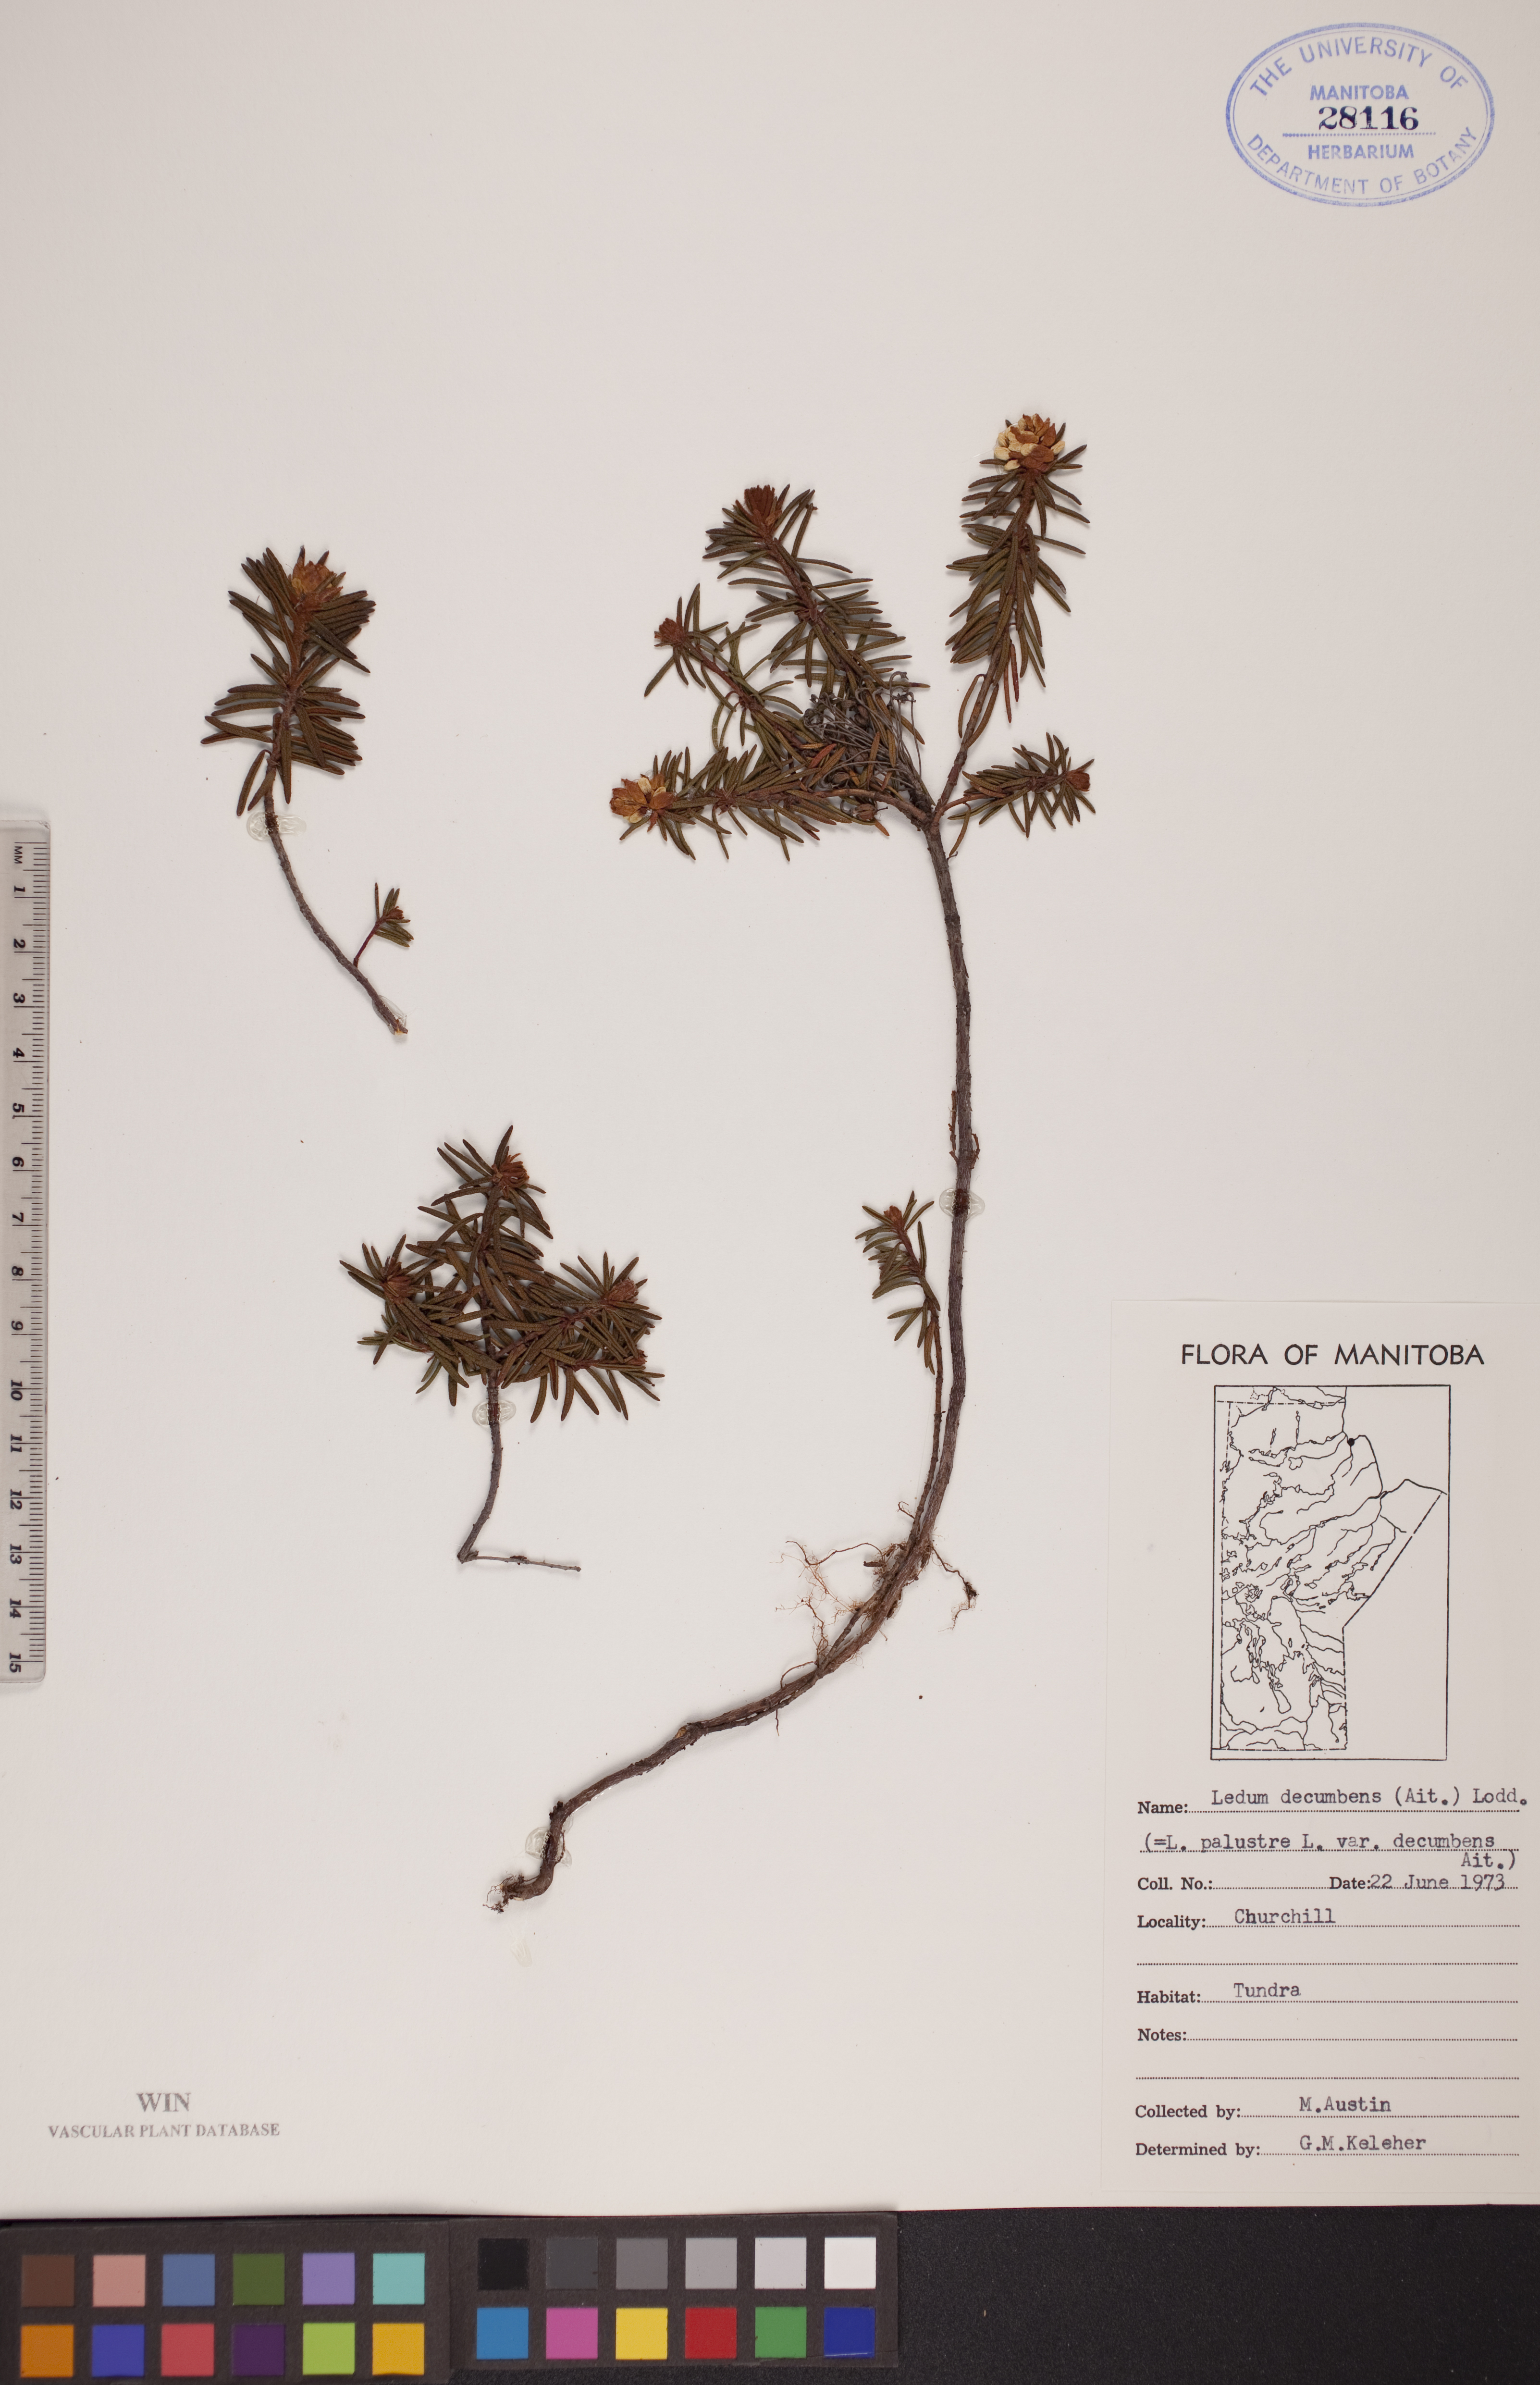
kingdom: Plantae
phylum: Tracheophyta
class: Magnoliopsida
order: Ericales
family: Ericaceae
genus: Rhododendron
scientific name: Rhododendron tomentosum
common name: Marsh labrador tea
